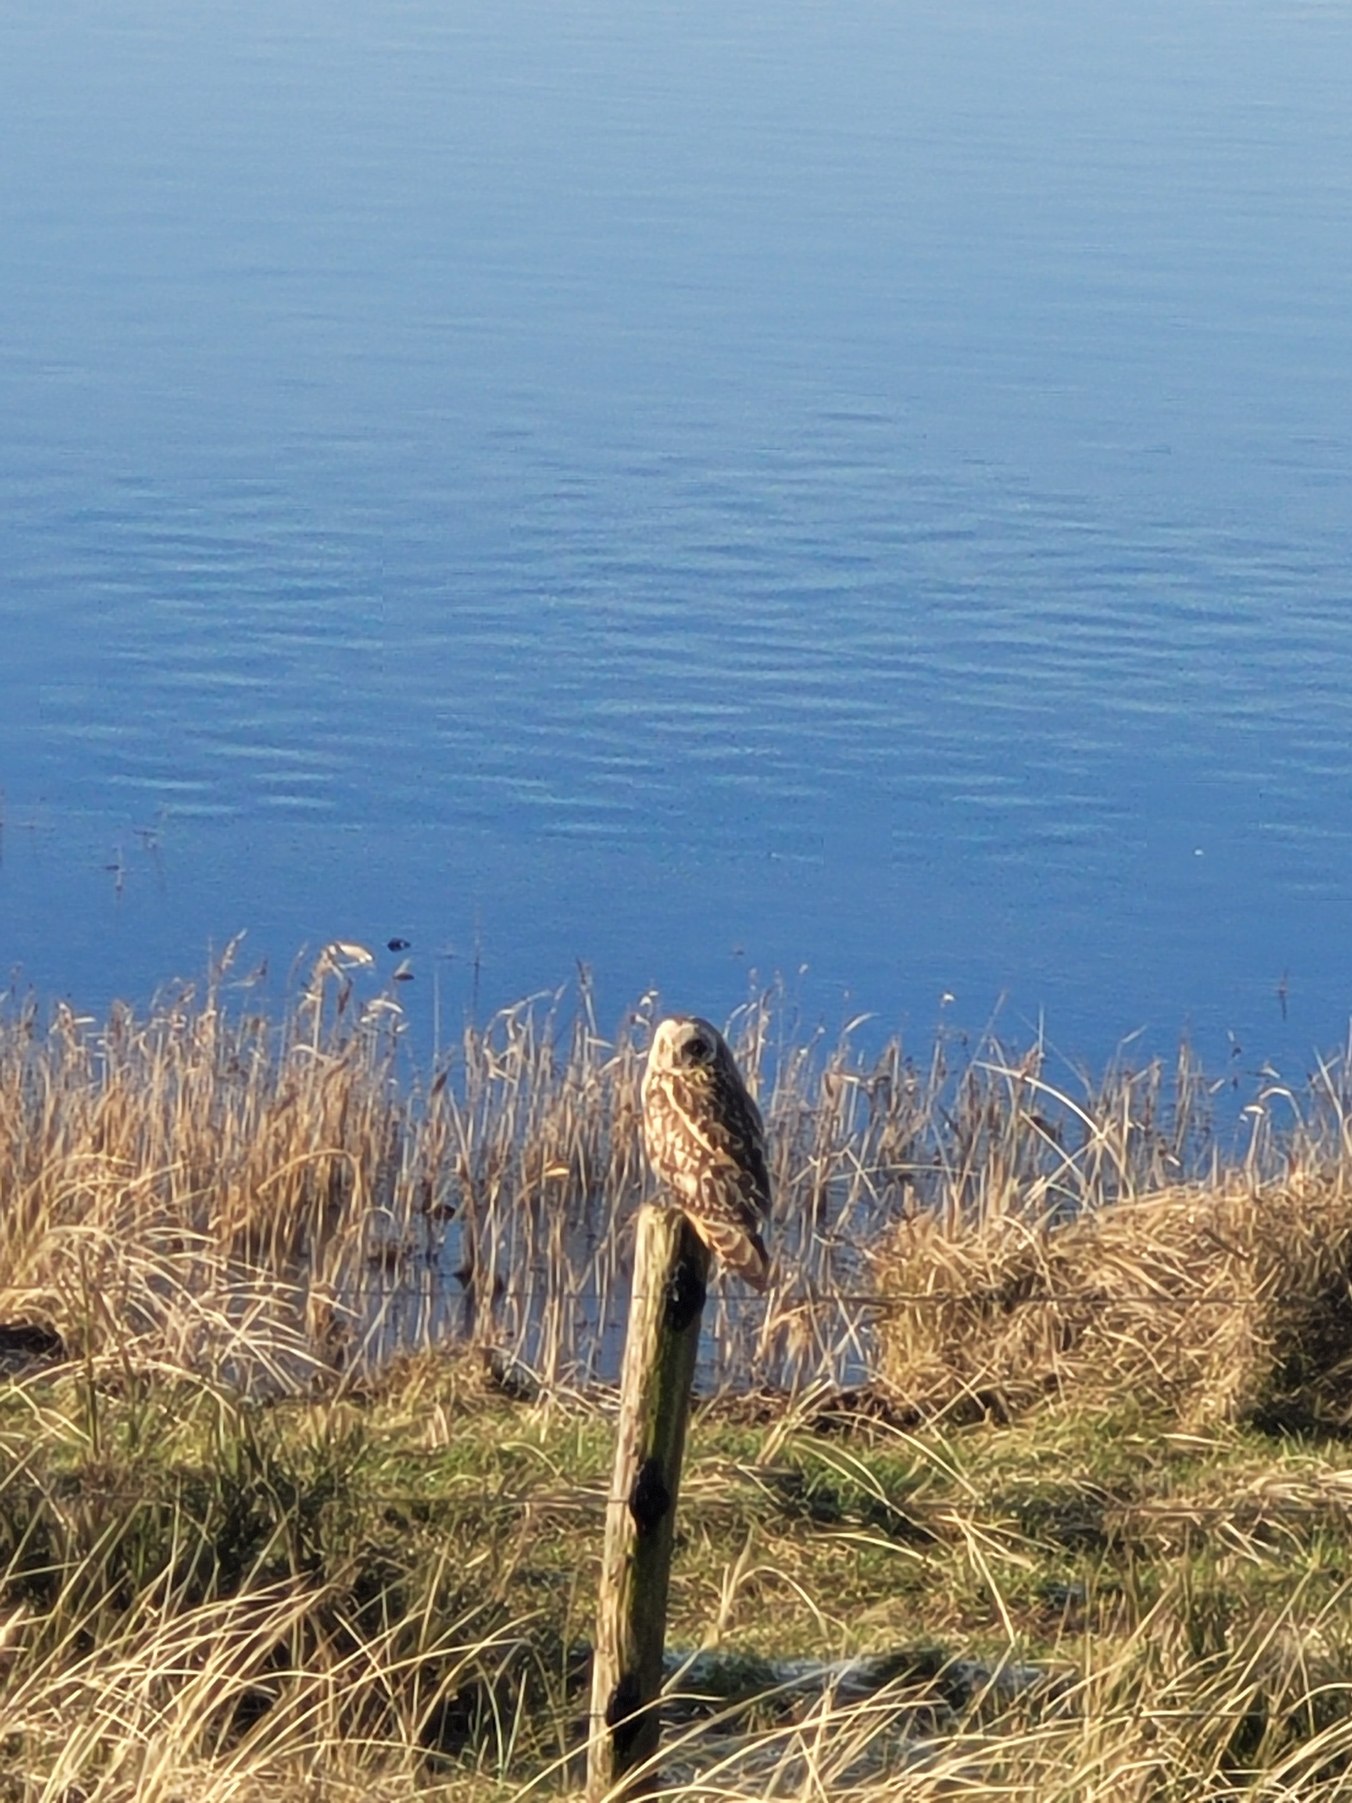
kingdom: Animalia
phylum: Chordata
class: Aves
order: Strigiformes
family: Strigidae
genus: Asio
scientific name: Asio flammeus
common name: Mosehornugle
